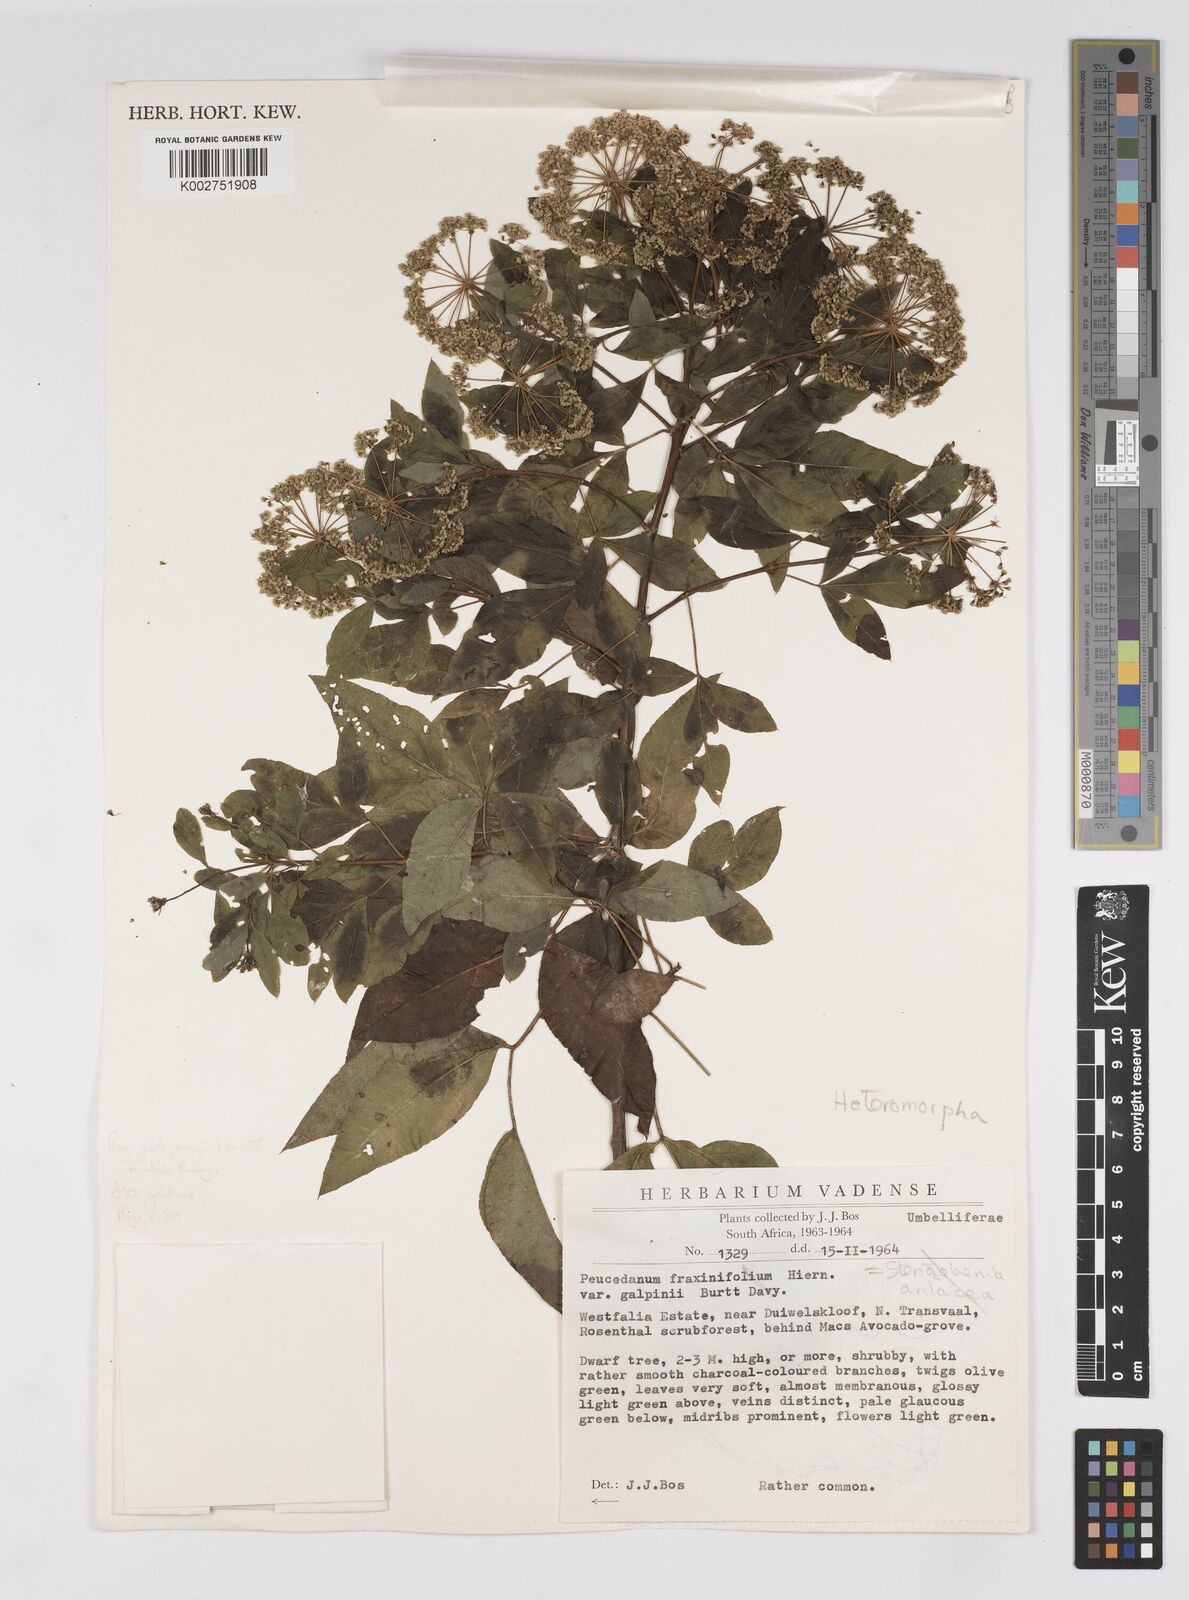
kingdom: Plantae
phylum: Tracheophyta
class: Magnoliopsida
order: Apiales
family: Apiaceae
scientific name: Apiaceae
